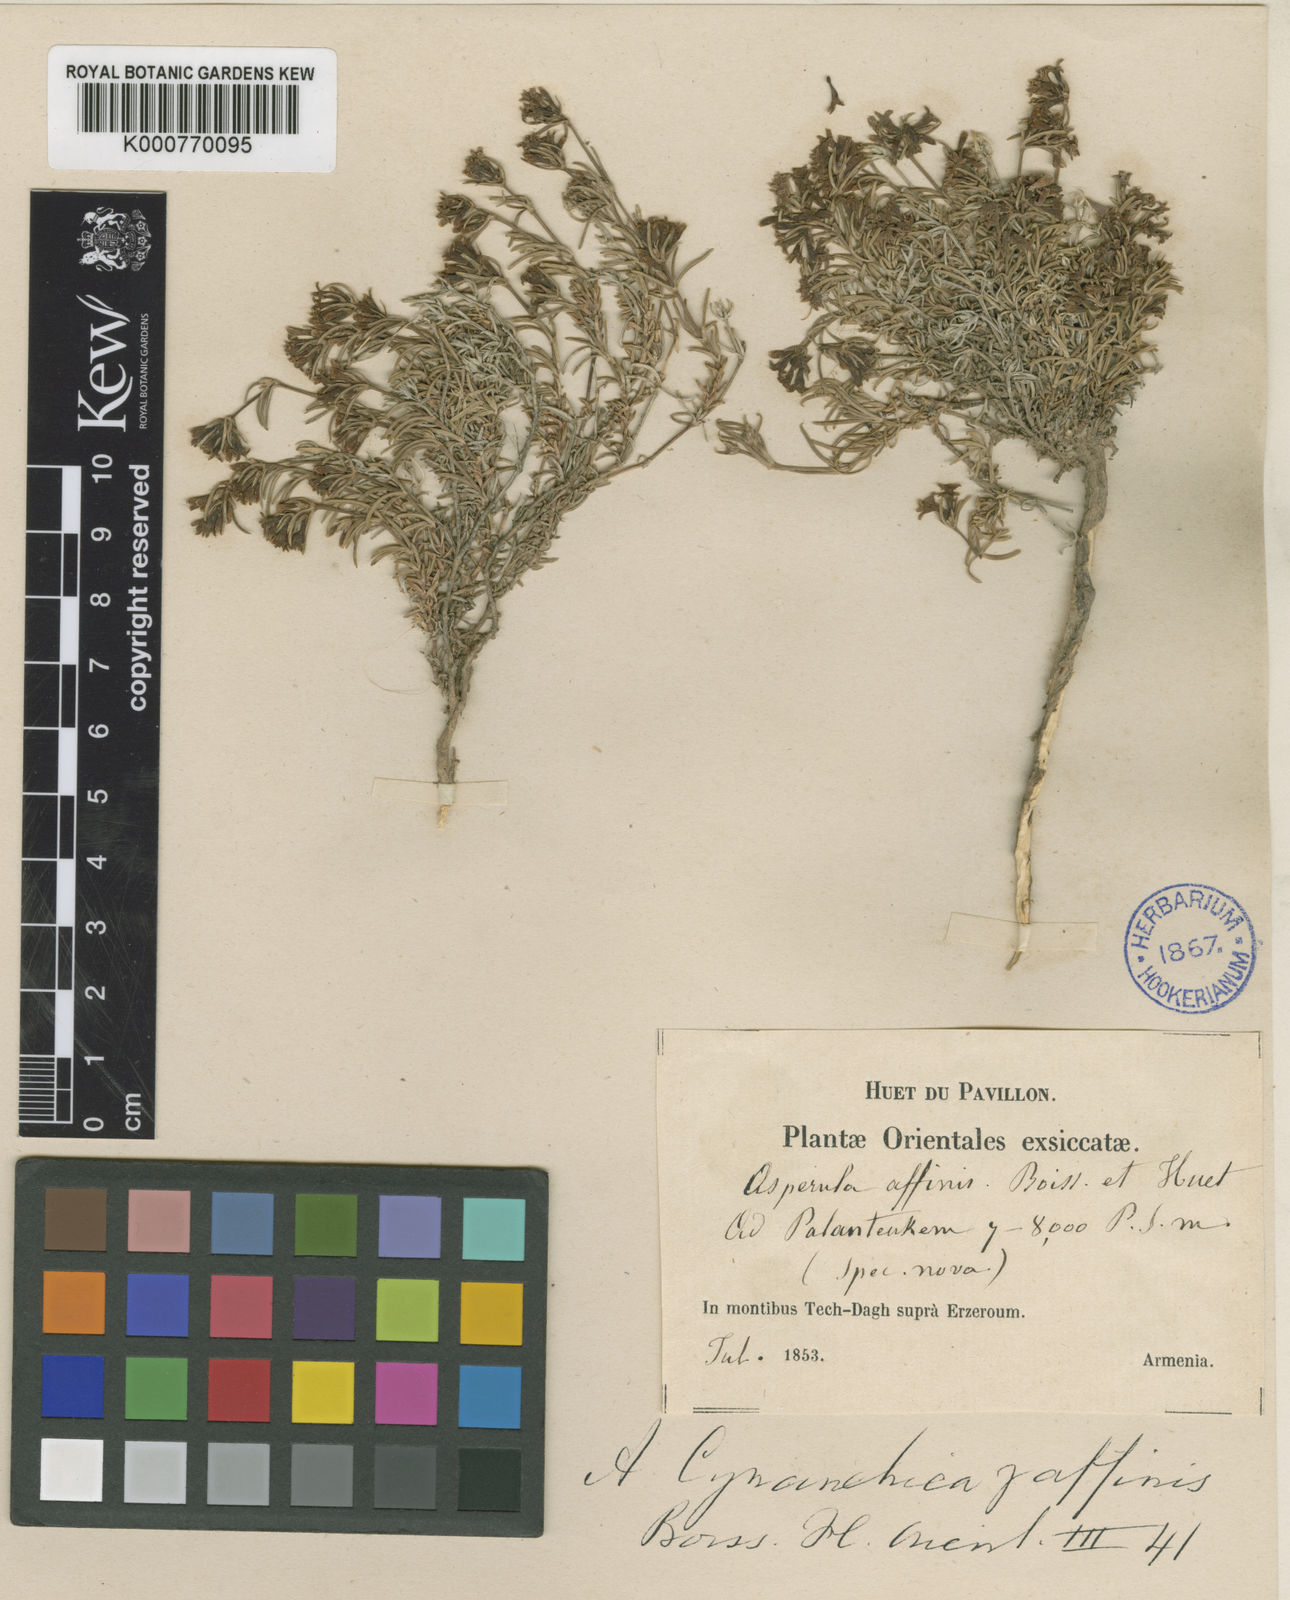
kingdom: Plantae
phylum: Tracheophyta
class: Magnoliopsida
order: Gentianales
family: Rubiaceae
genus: Cynanchica
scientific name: Cynanchica affinis
